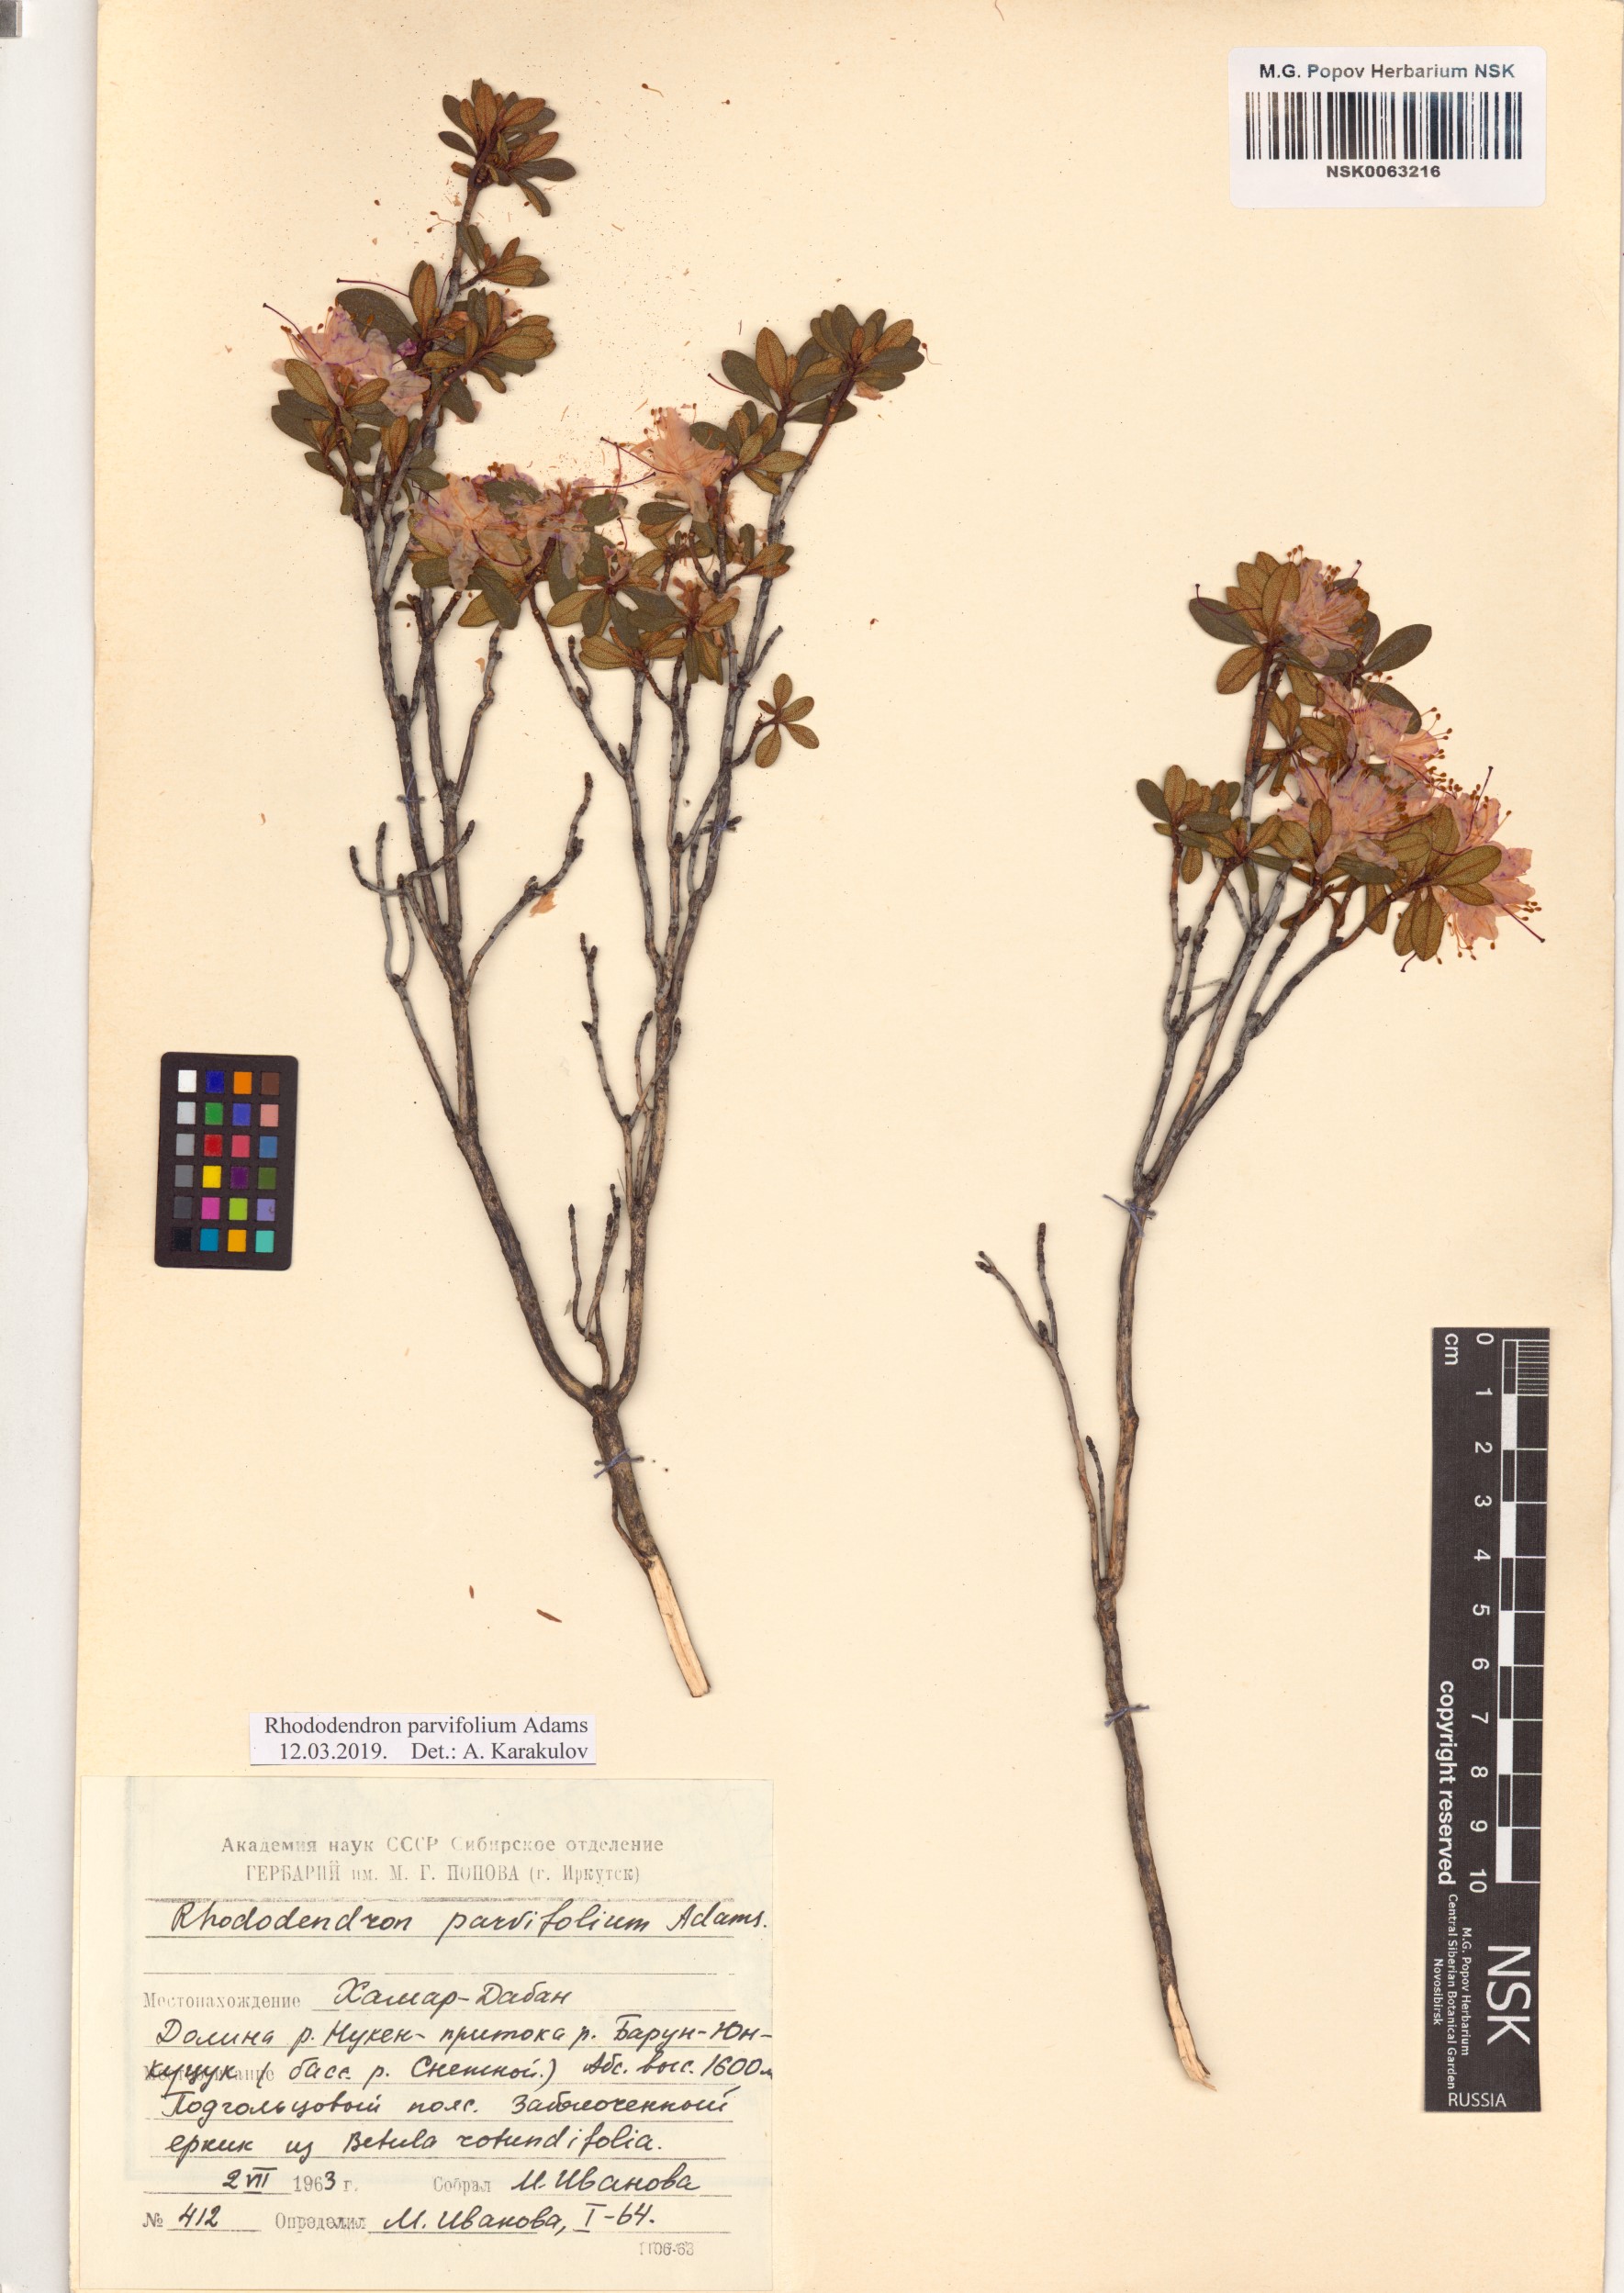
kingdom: Plantae
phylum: Tracheophyta
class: Magnoliopsida
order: Ericales
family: Ericaceae
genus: Rhododendron
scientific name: Rhododendron parvifolium
